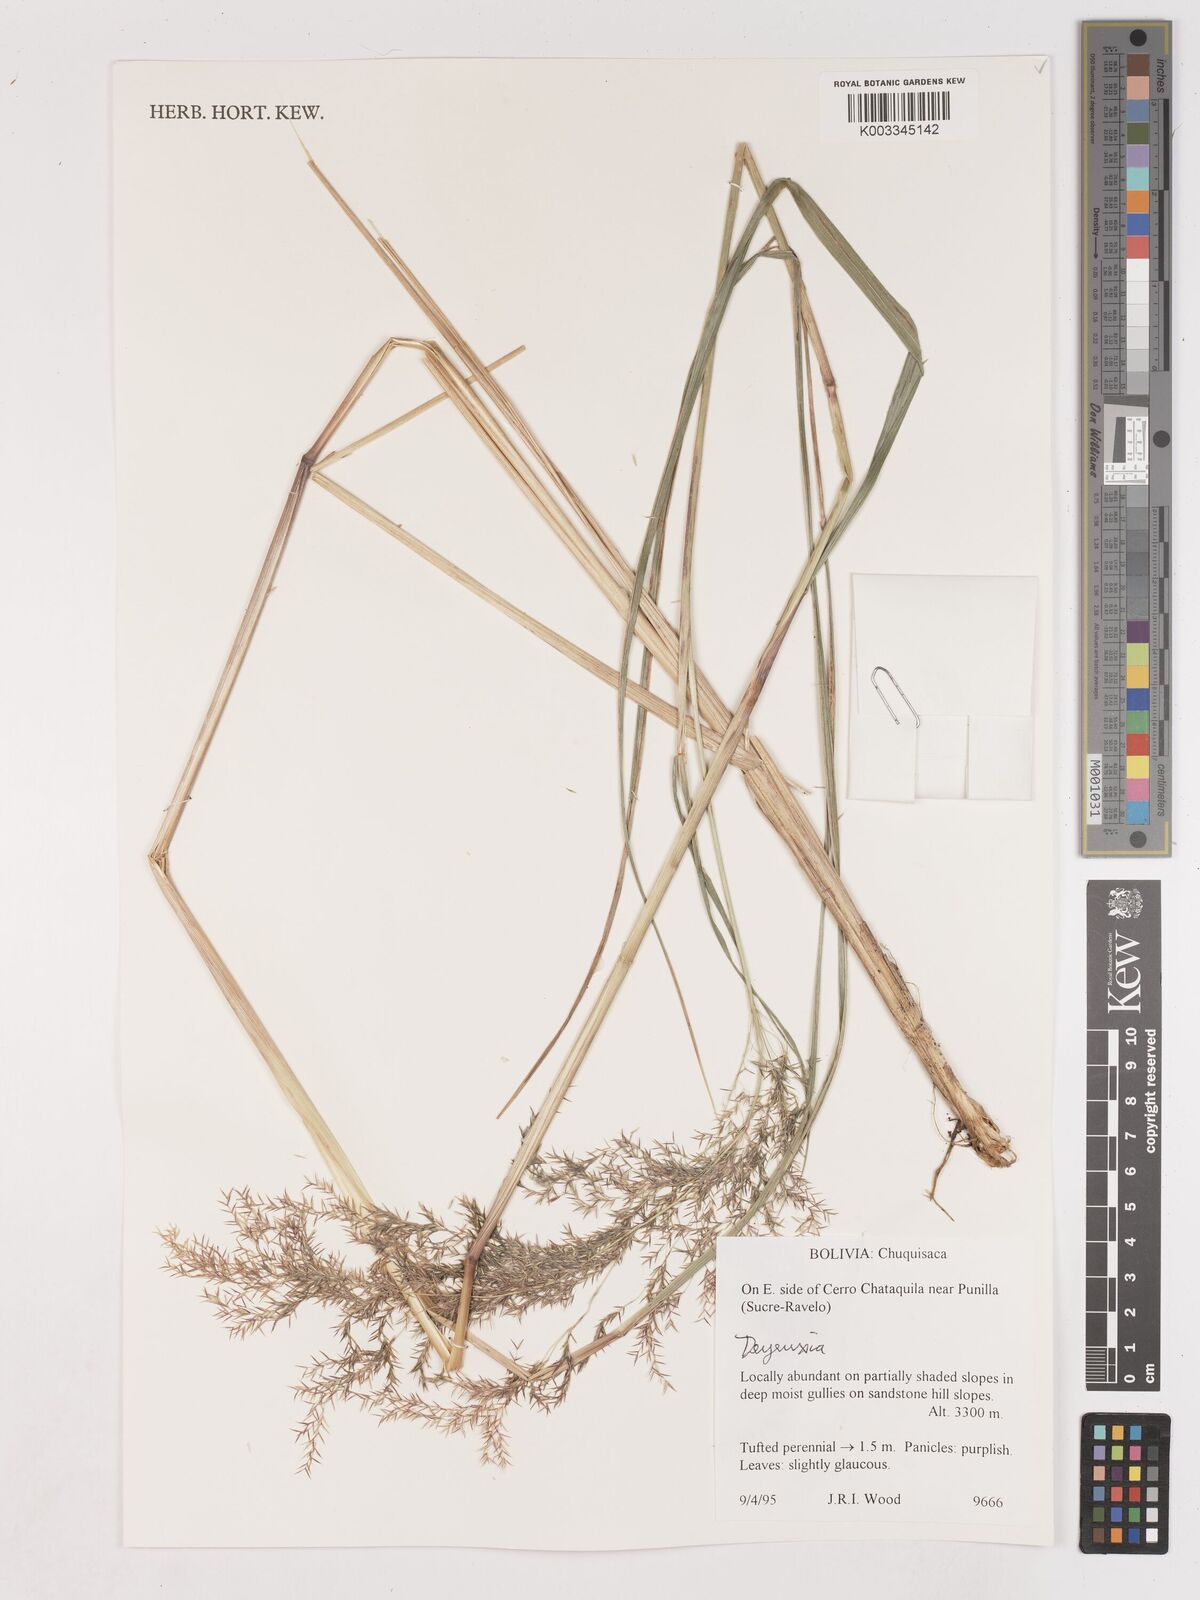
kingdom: Plantae
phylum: Tracheophyta
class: Liliopsida
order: Poales
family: Poaceae
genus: Calamagrostis
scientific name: Calamagrostis
